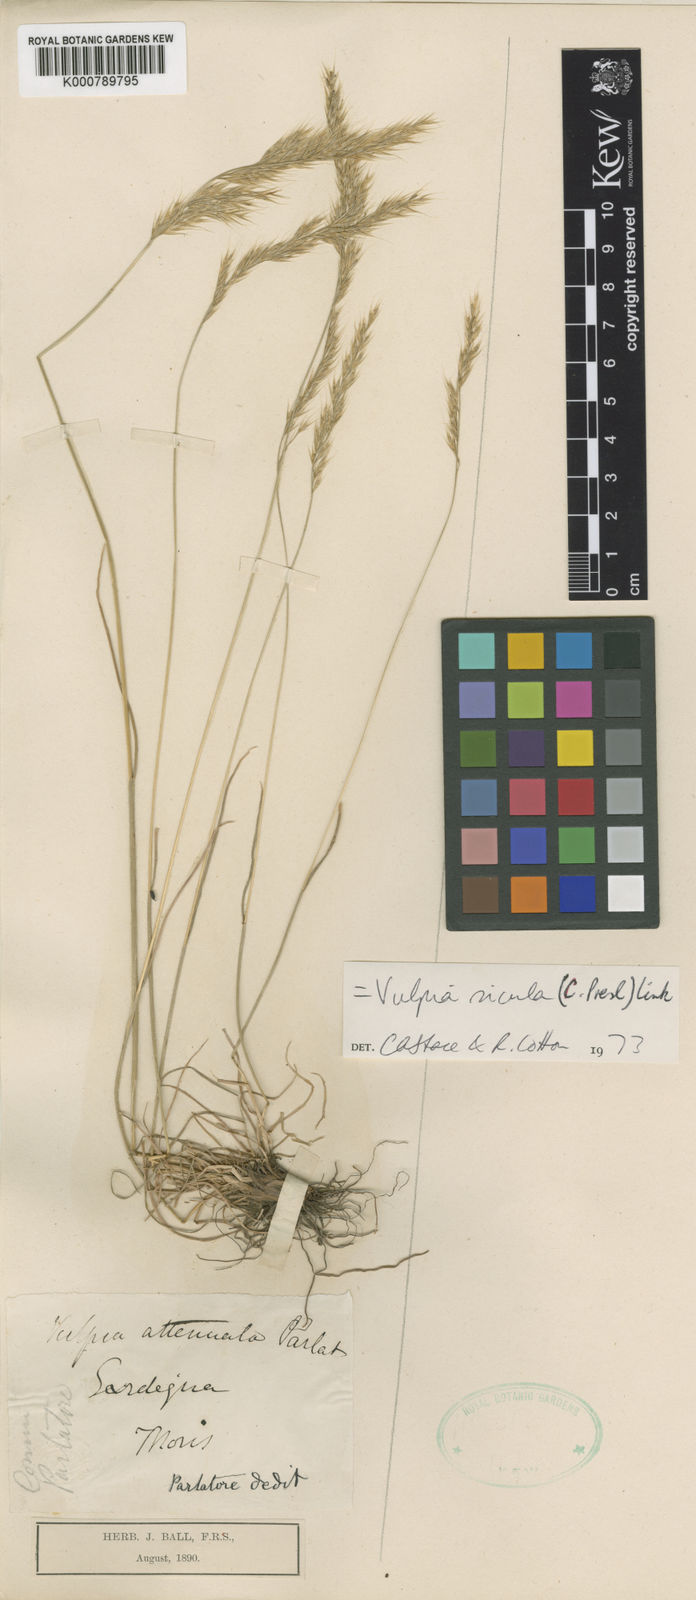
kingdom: Plantae
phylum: Tracheophyta
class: Liliopsida
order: Poales
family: Poaceae
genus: Festuca
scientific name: Festuca sicula
